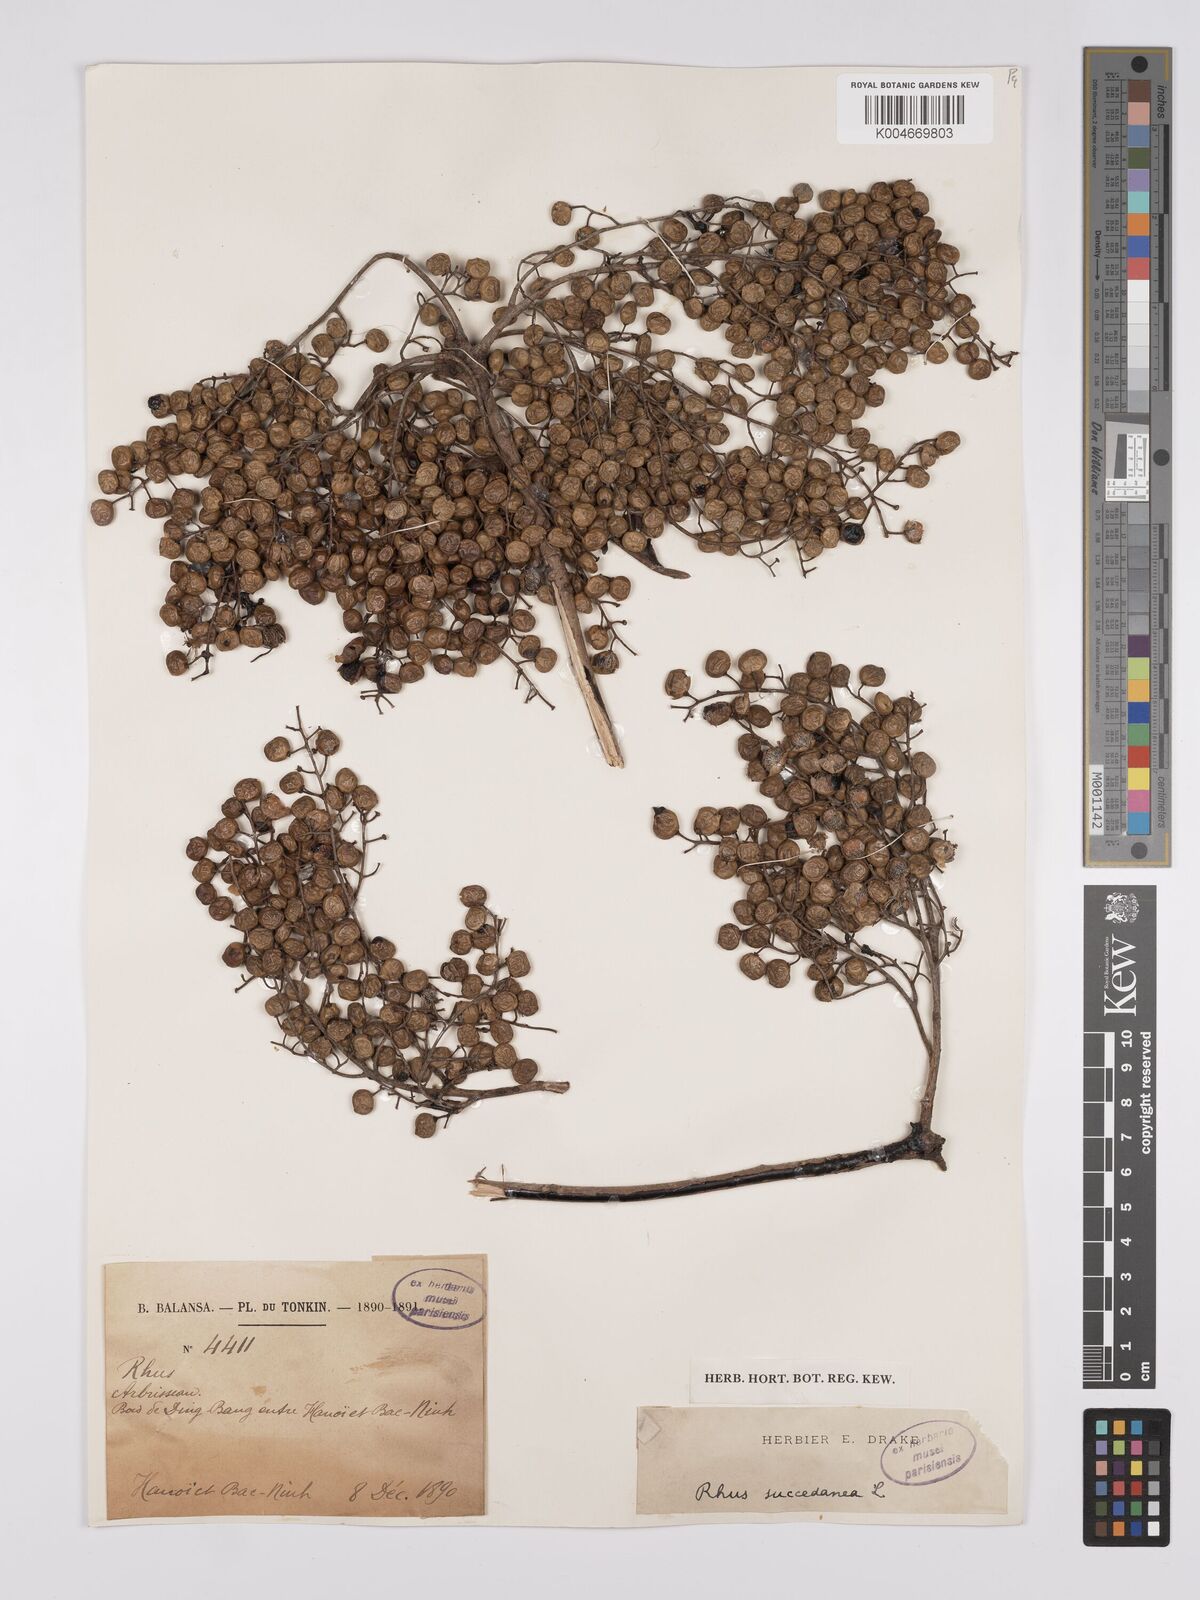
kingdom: Plantae
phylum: Tracheophyta
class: Magnoliopsida
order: Sapindales
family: Anacardiaceae
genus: Toxicodendron
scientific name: Toxicodendron succedaneum
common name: Wax tree
